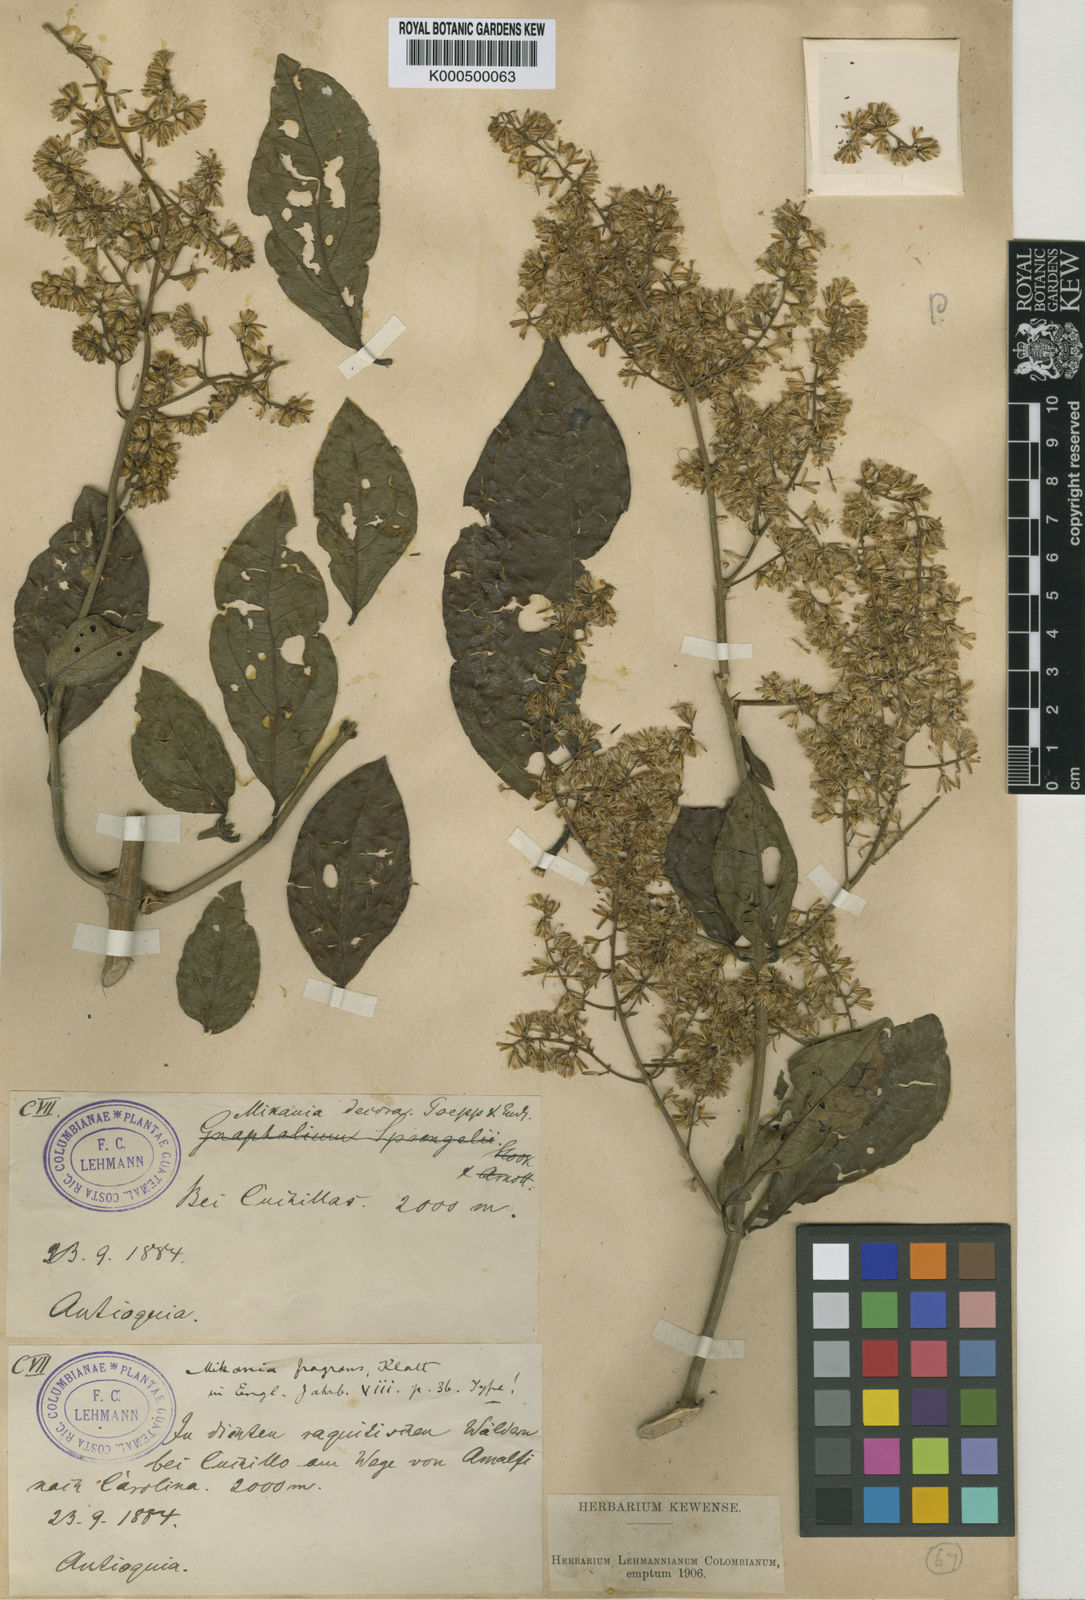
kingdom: Plantae
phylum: Tracheophyta
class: Magnoliopsida
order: Asterales
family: Asteraceae
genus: Mikania
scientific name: Mikania fragrans
